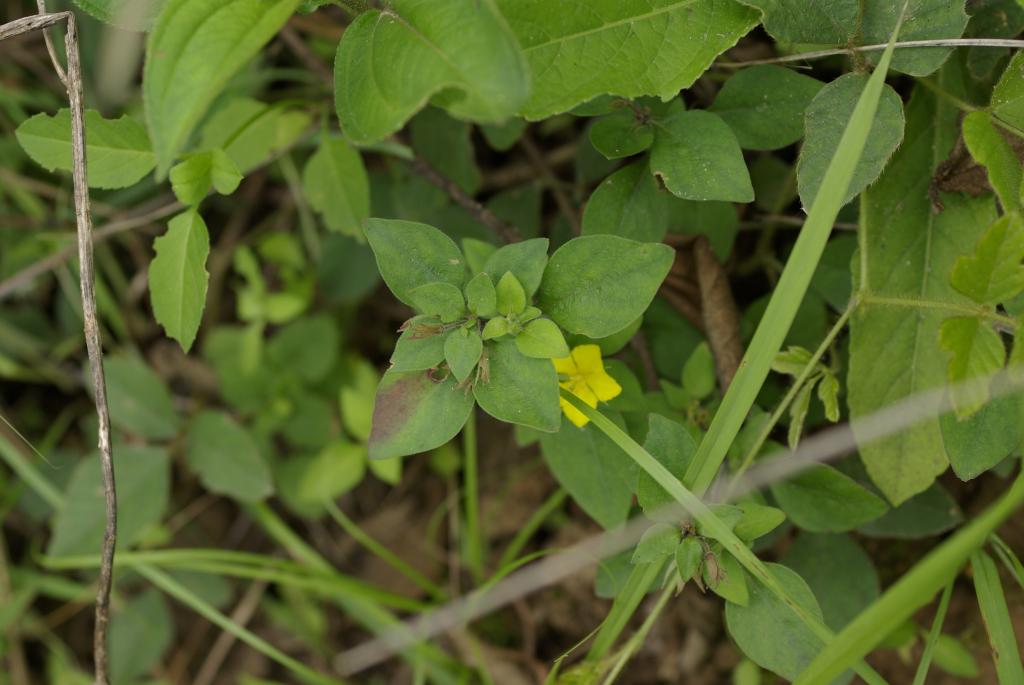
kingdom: Plantae
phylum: Tracheophyta
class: Magnoliopsida
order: Ericales
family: Primulaceae
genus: Lysimachia
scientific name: Lysimachia remota
